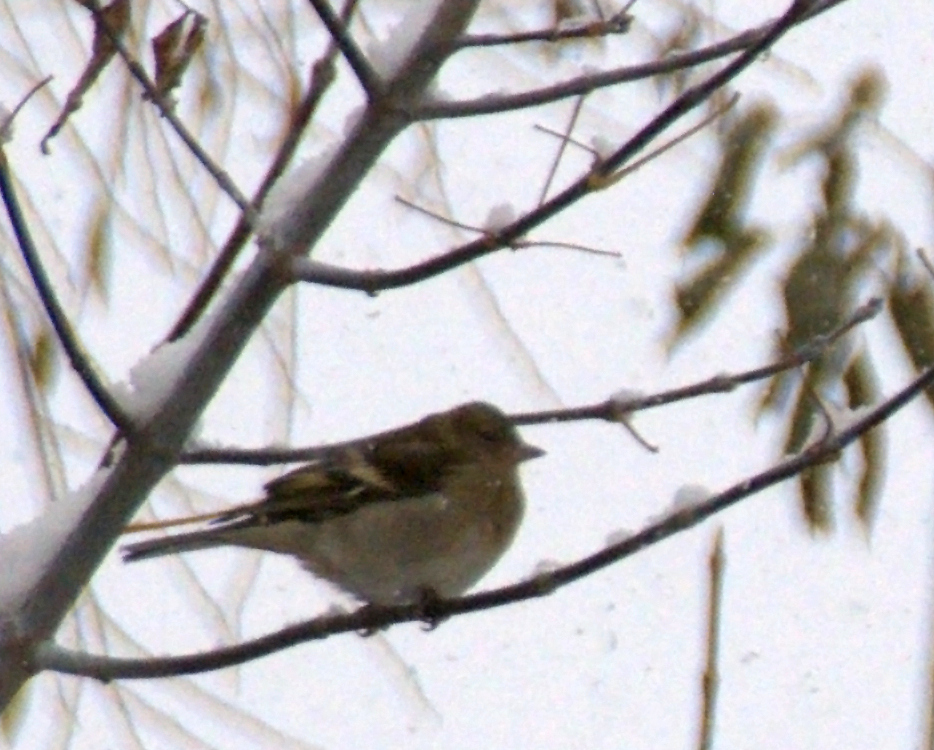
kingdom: Animalia
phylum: Chordata
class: Aves
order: Passeriformes
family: Fringillidae
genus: Fringilla
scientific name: Fringilla coelebs
